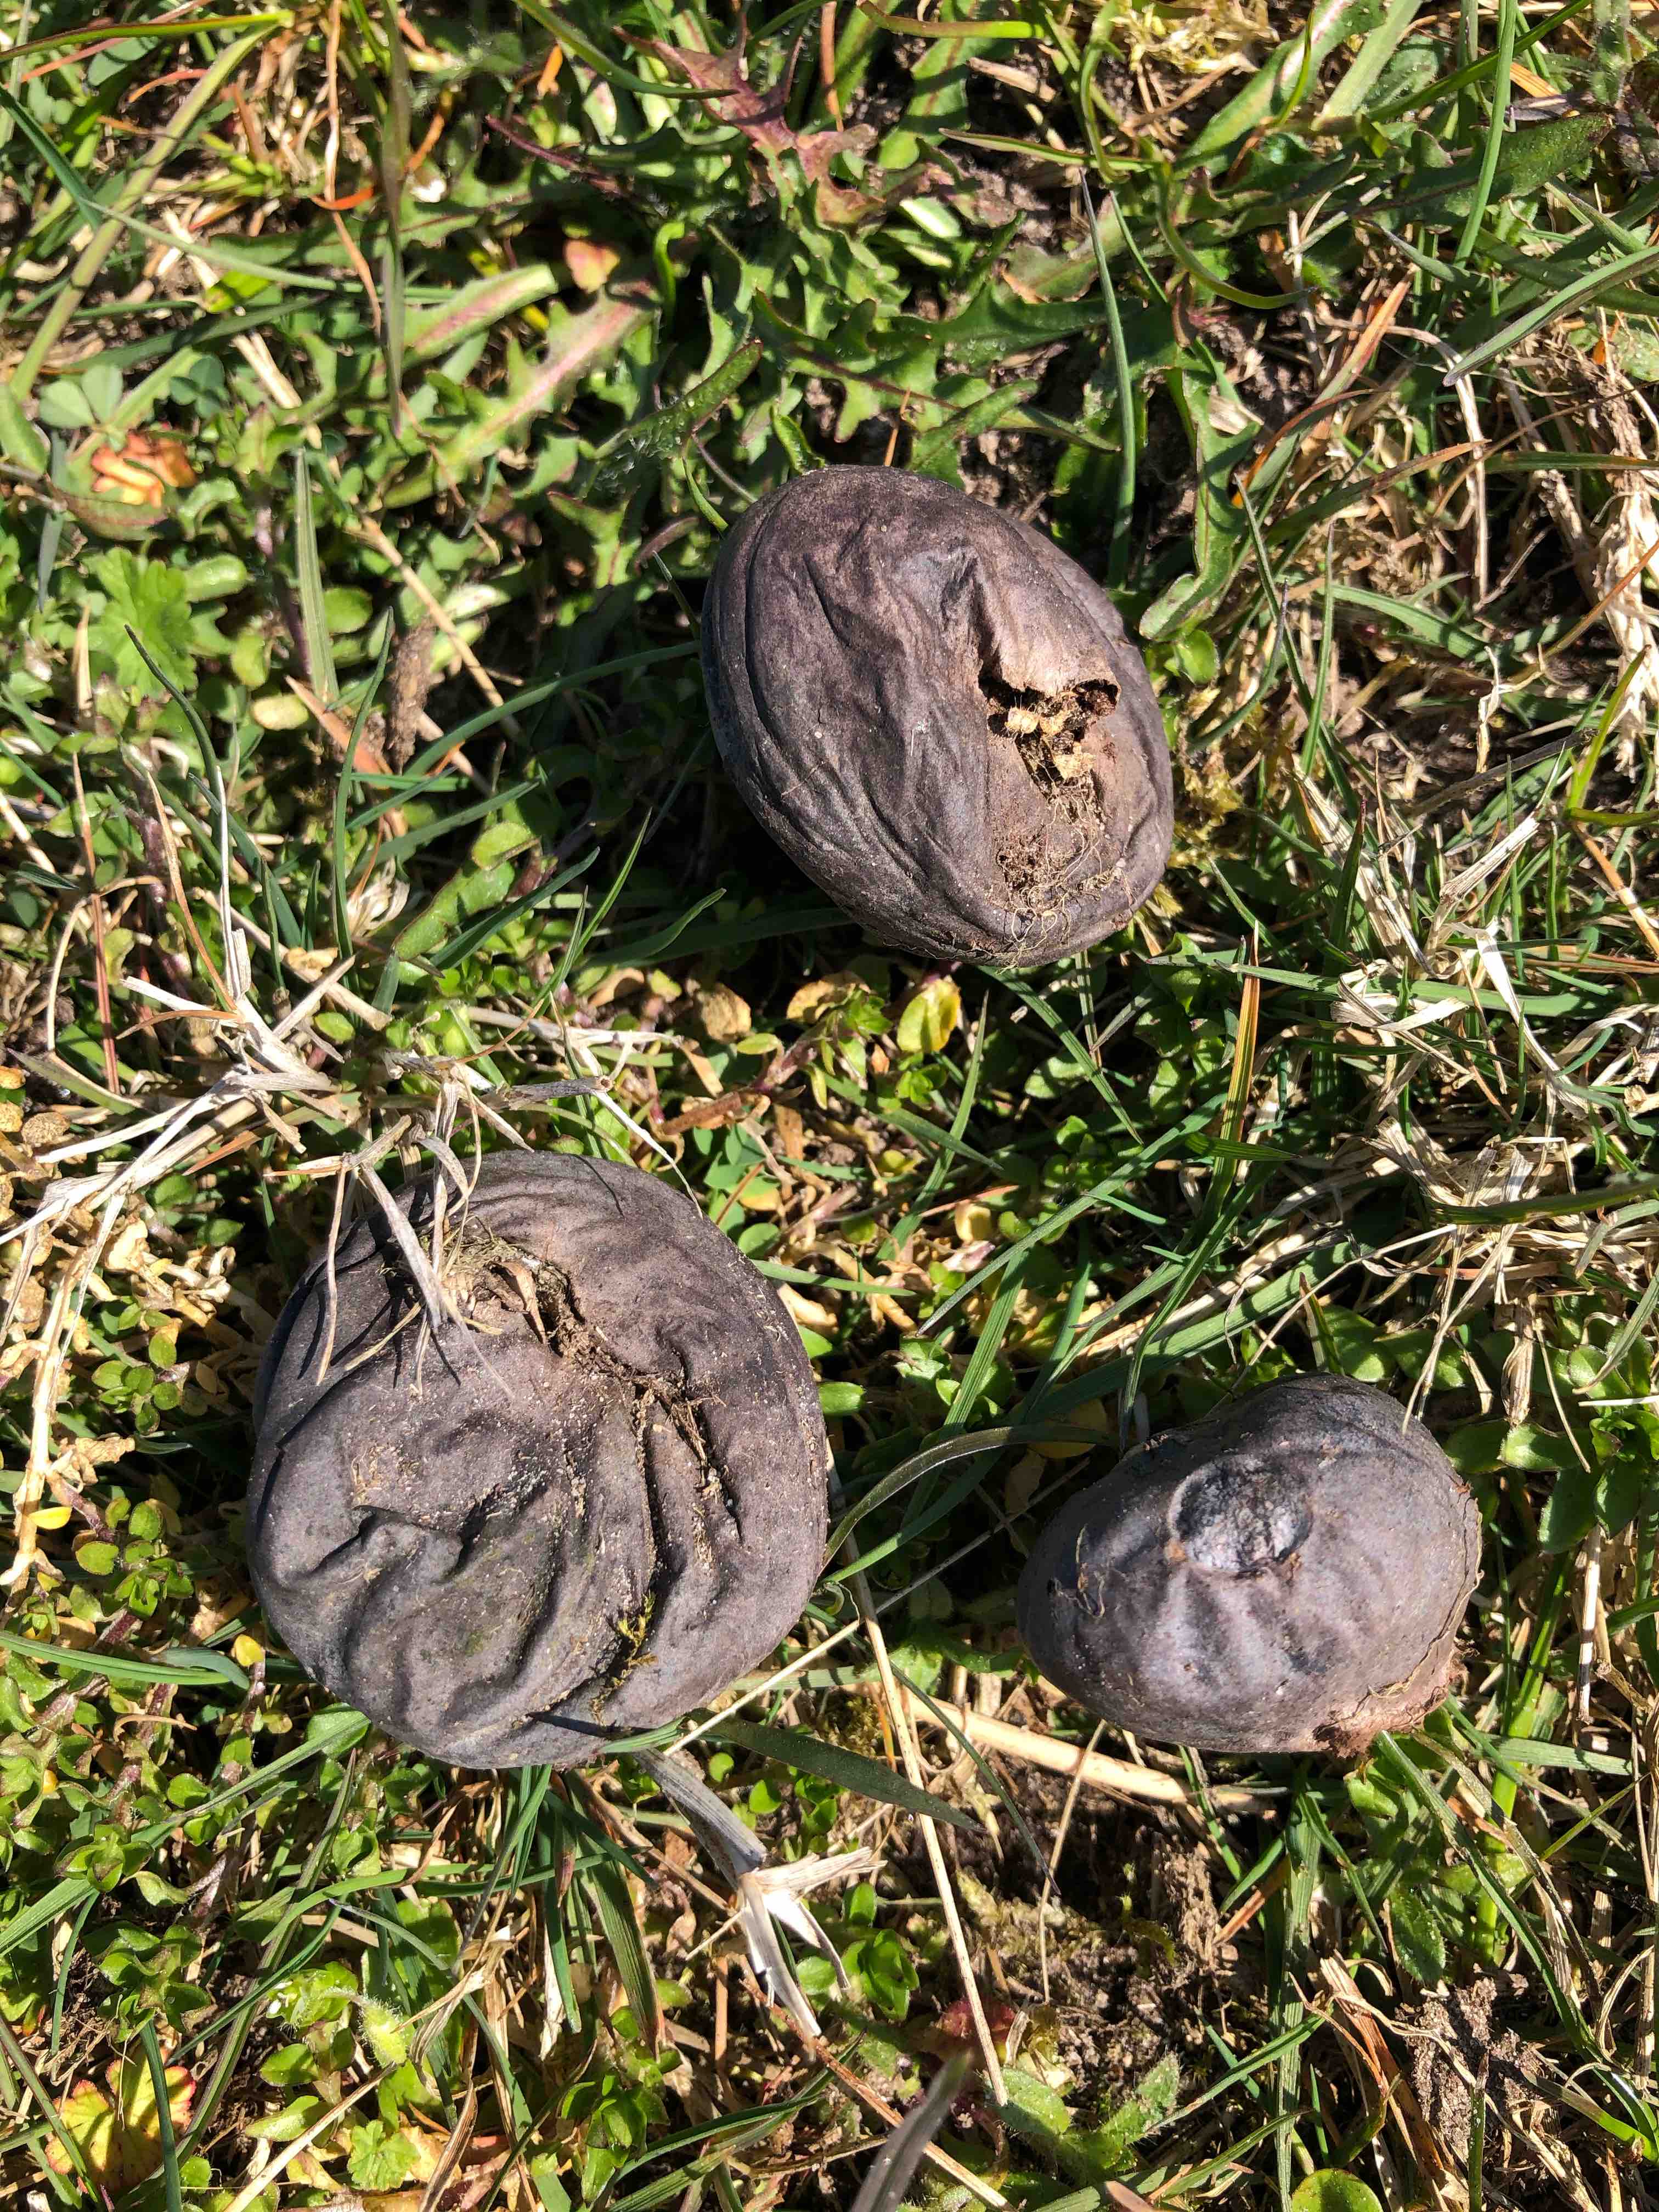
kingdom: Fungi
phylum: Basidiomycota
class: Agaricomycetes
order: Agaricales
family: Lycoperdaceae
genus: Bovista
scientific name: Bovista plumbea
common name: blygrå bovist
